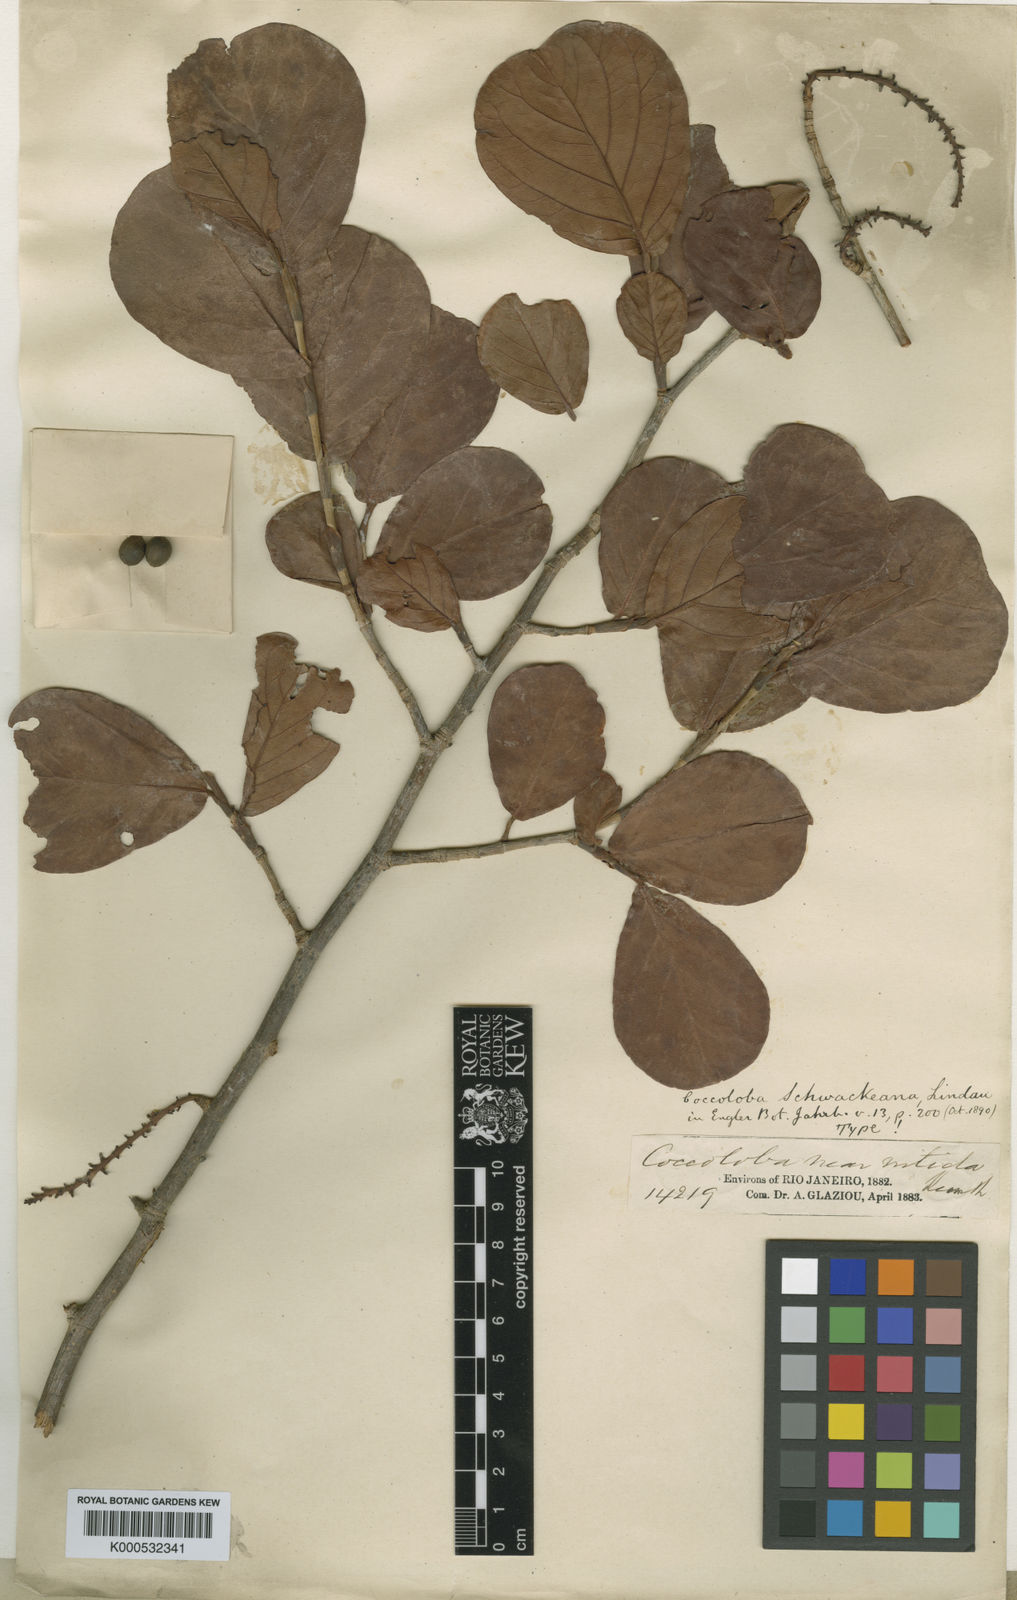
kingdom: Plantae
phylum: Tracheophyta
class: Magnoliopsida
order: Caryophyllales
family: Polygonaceae
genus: Coccoloba
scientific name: Coccoloba schwackeana
